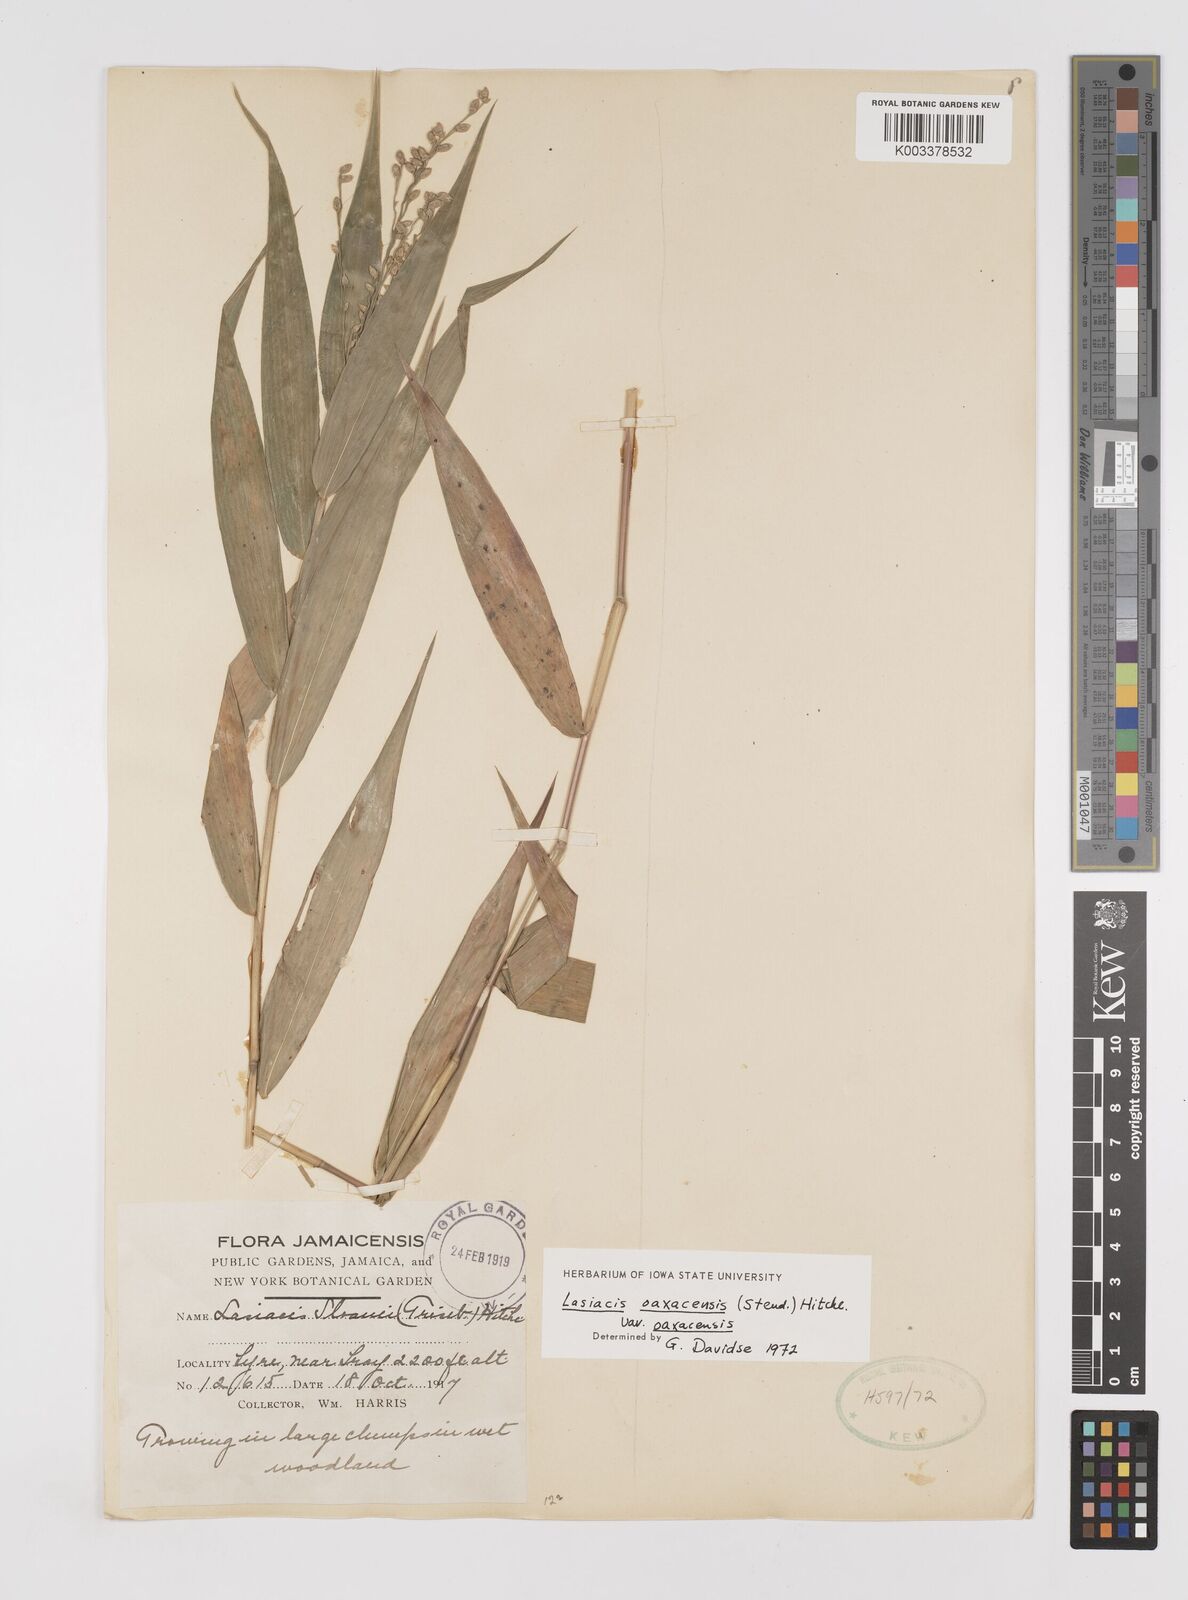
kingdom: Plantae
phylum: Tracheophyta
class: Liliopsida
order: Poales
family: Poaceae
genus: Lasiacis
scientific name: Lasiacis oaxacensis
